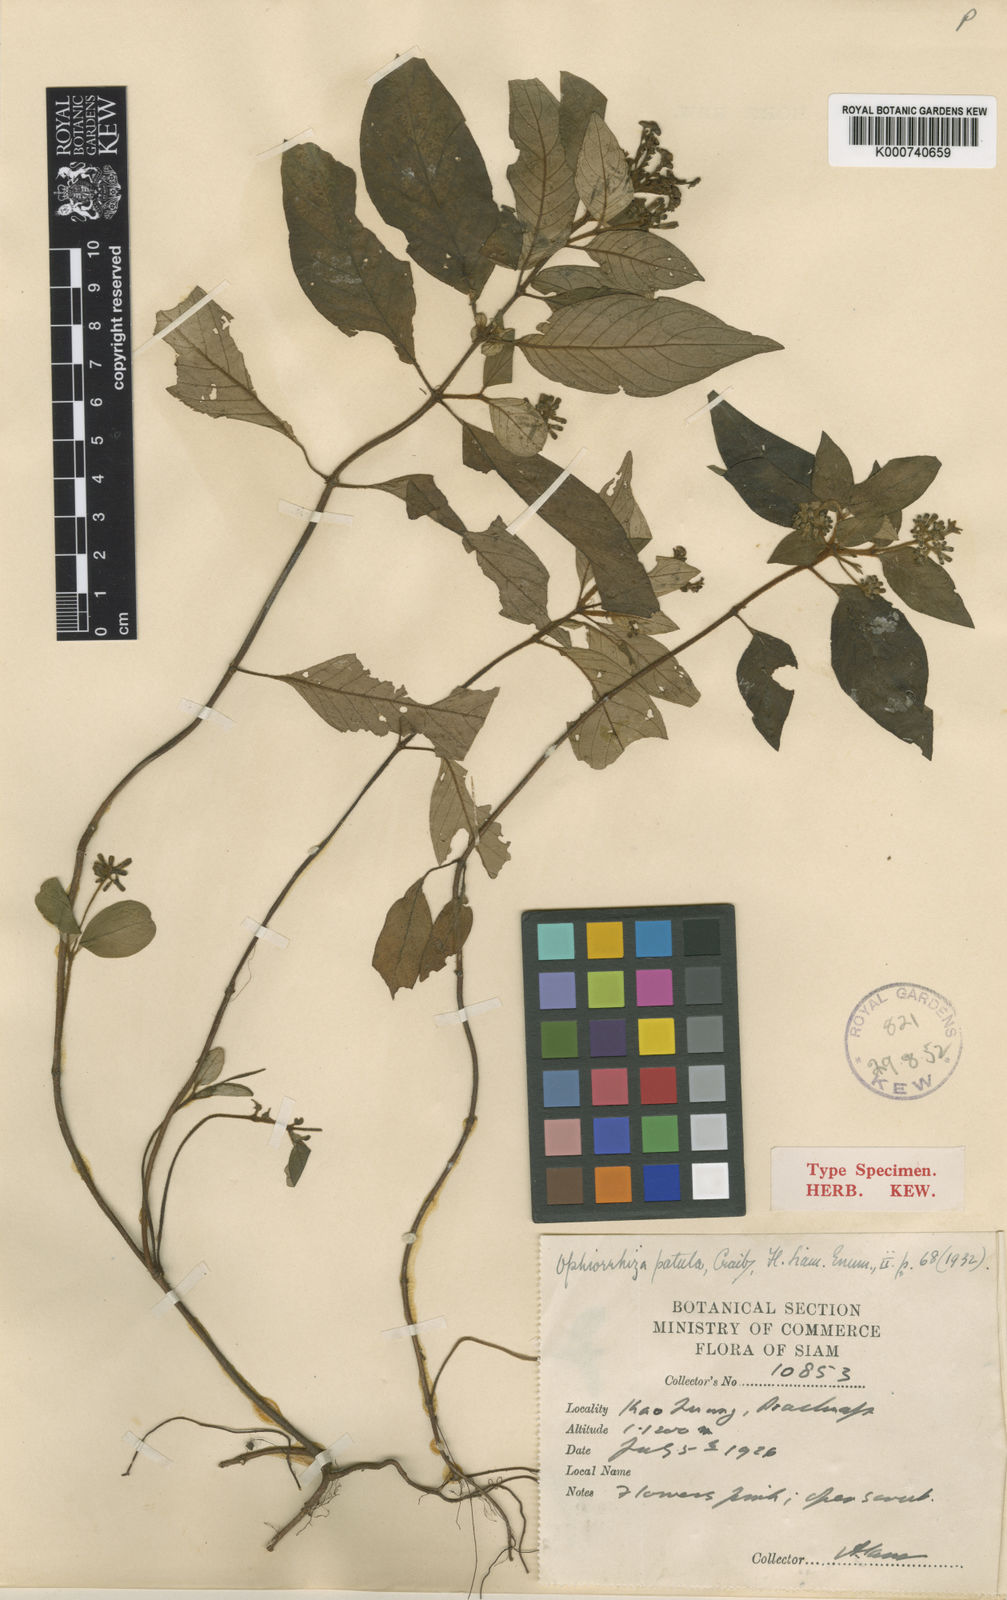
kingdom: Plantae
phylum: Tracheophyta
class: Magnoliopsida
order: Gentianales
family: Rubiaceae
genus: Ophiorrhiza
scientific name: Ophiorrhiza patula
